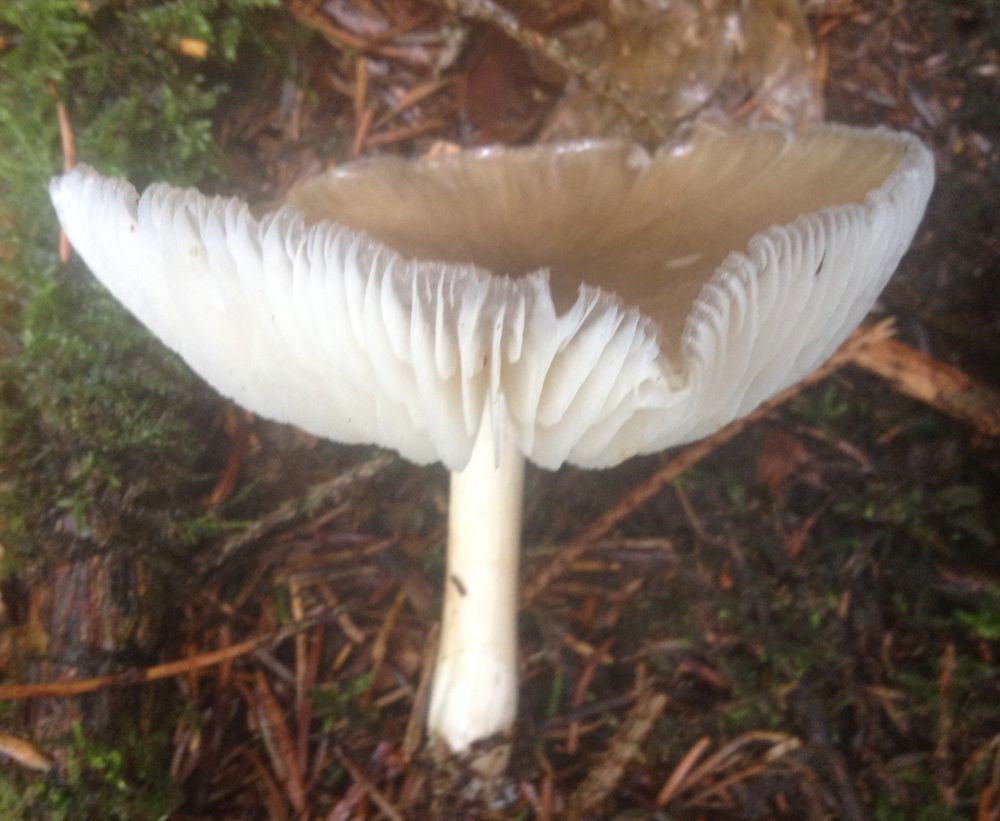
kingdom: Fungi
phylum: Basidiomycota
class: Agaricomycetes
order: Agaricales
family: Tricholomataceae
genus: Megacollybia
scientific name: Megacollybia platyphylla
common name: bredbladet væbnerhat
